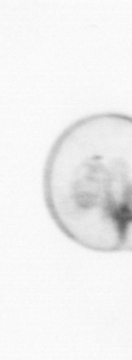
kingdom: Chromista
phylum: Myzozoa
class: Dinophyceae
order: Noctilucales
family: Noctilucaceae
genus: Noctiluca
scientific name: Noctiluca scintillans
